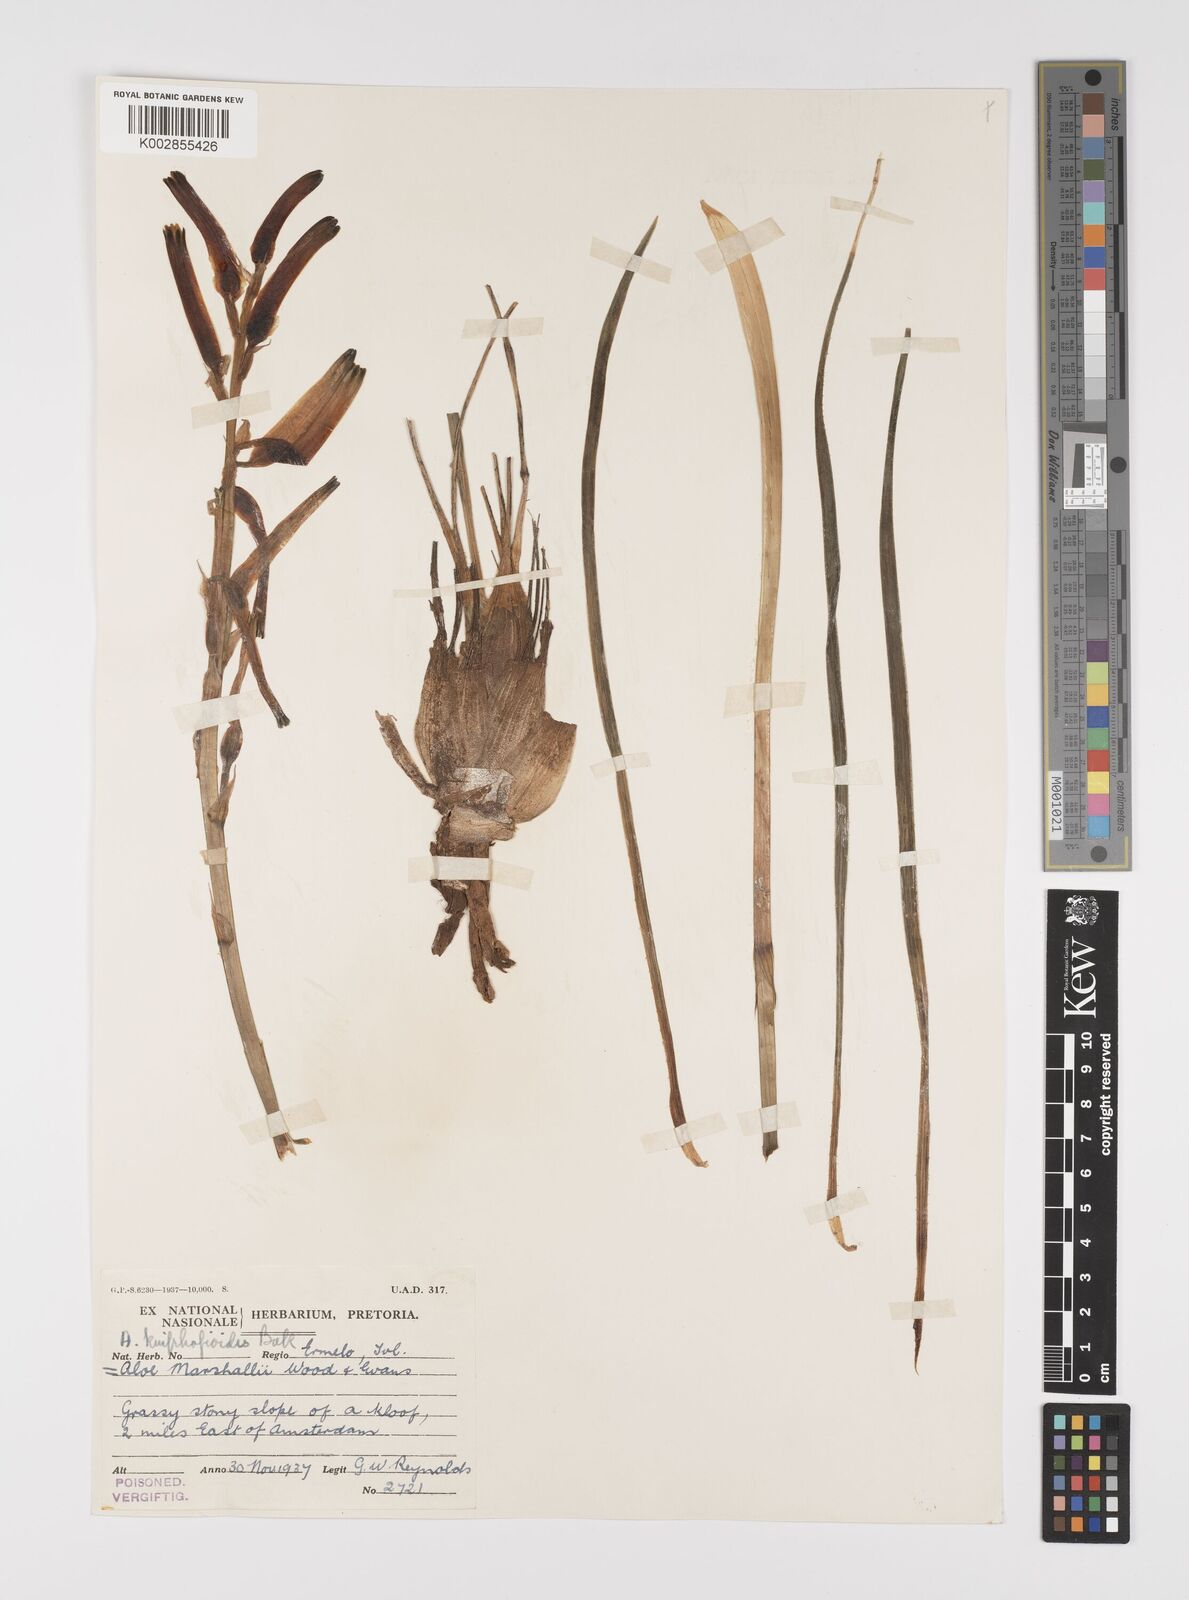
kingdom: Plantae
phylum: Tracheophyta
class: Liliopsida
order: Asparagales
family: Asphodelaceae
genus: Aloe
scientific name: Aloe kniphofioides
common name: Grass aloe
